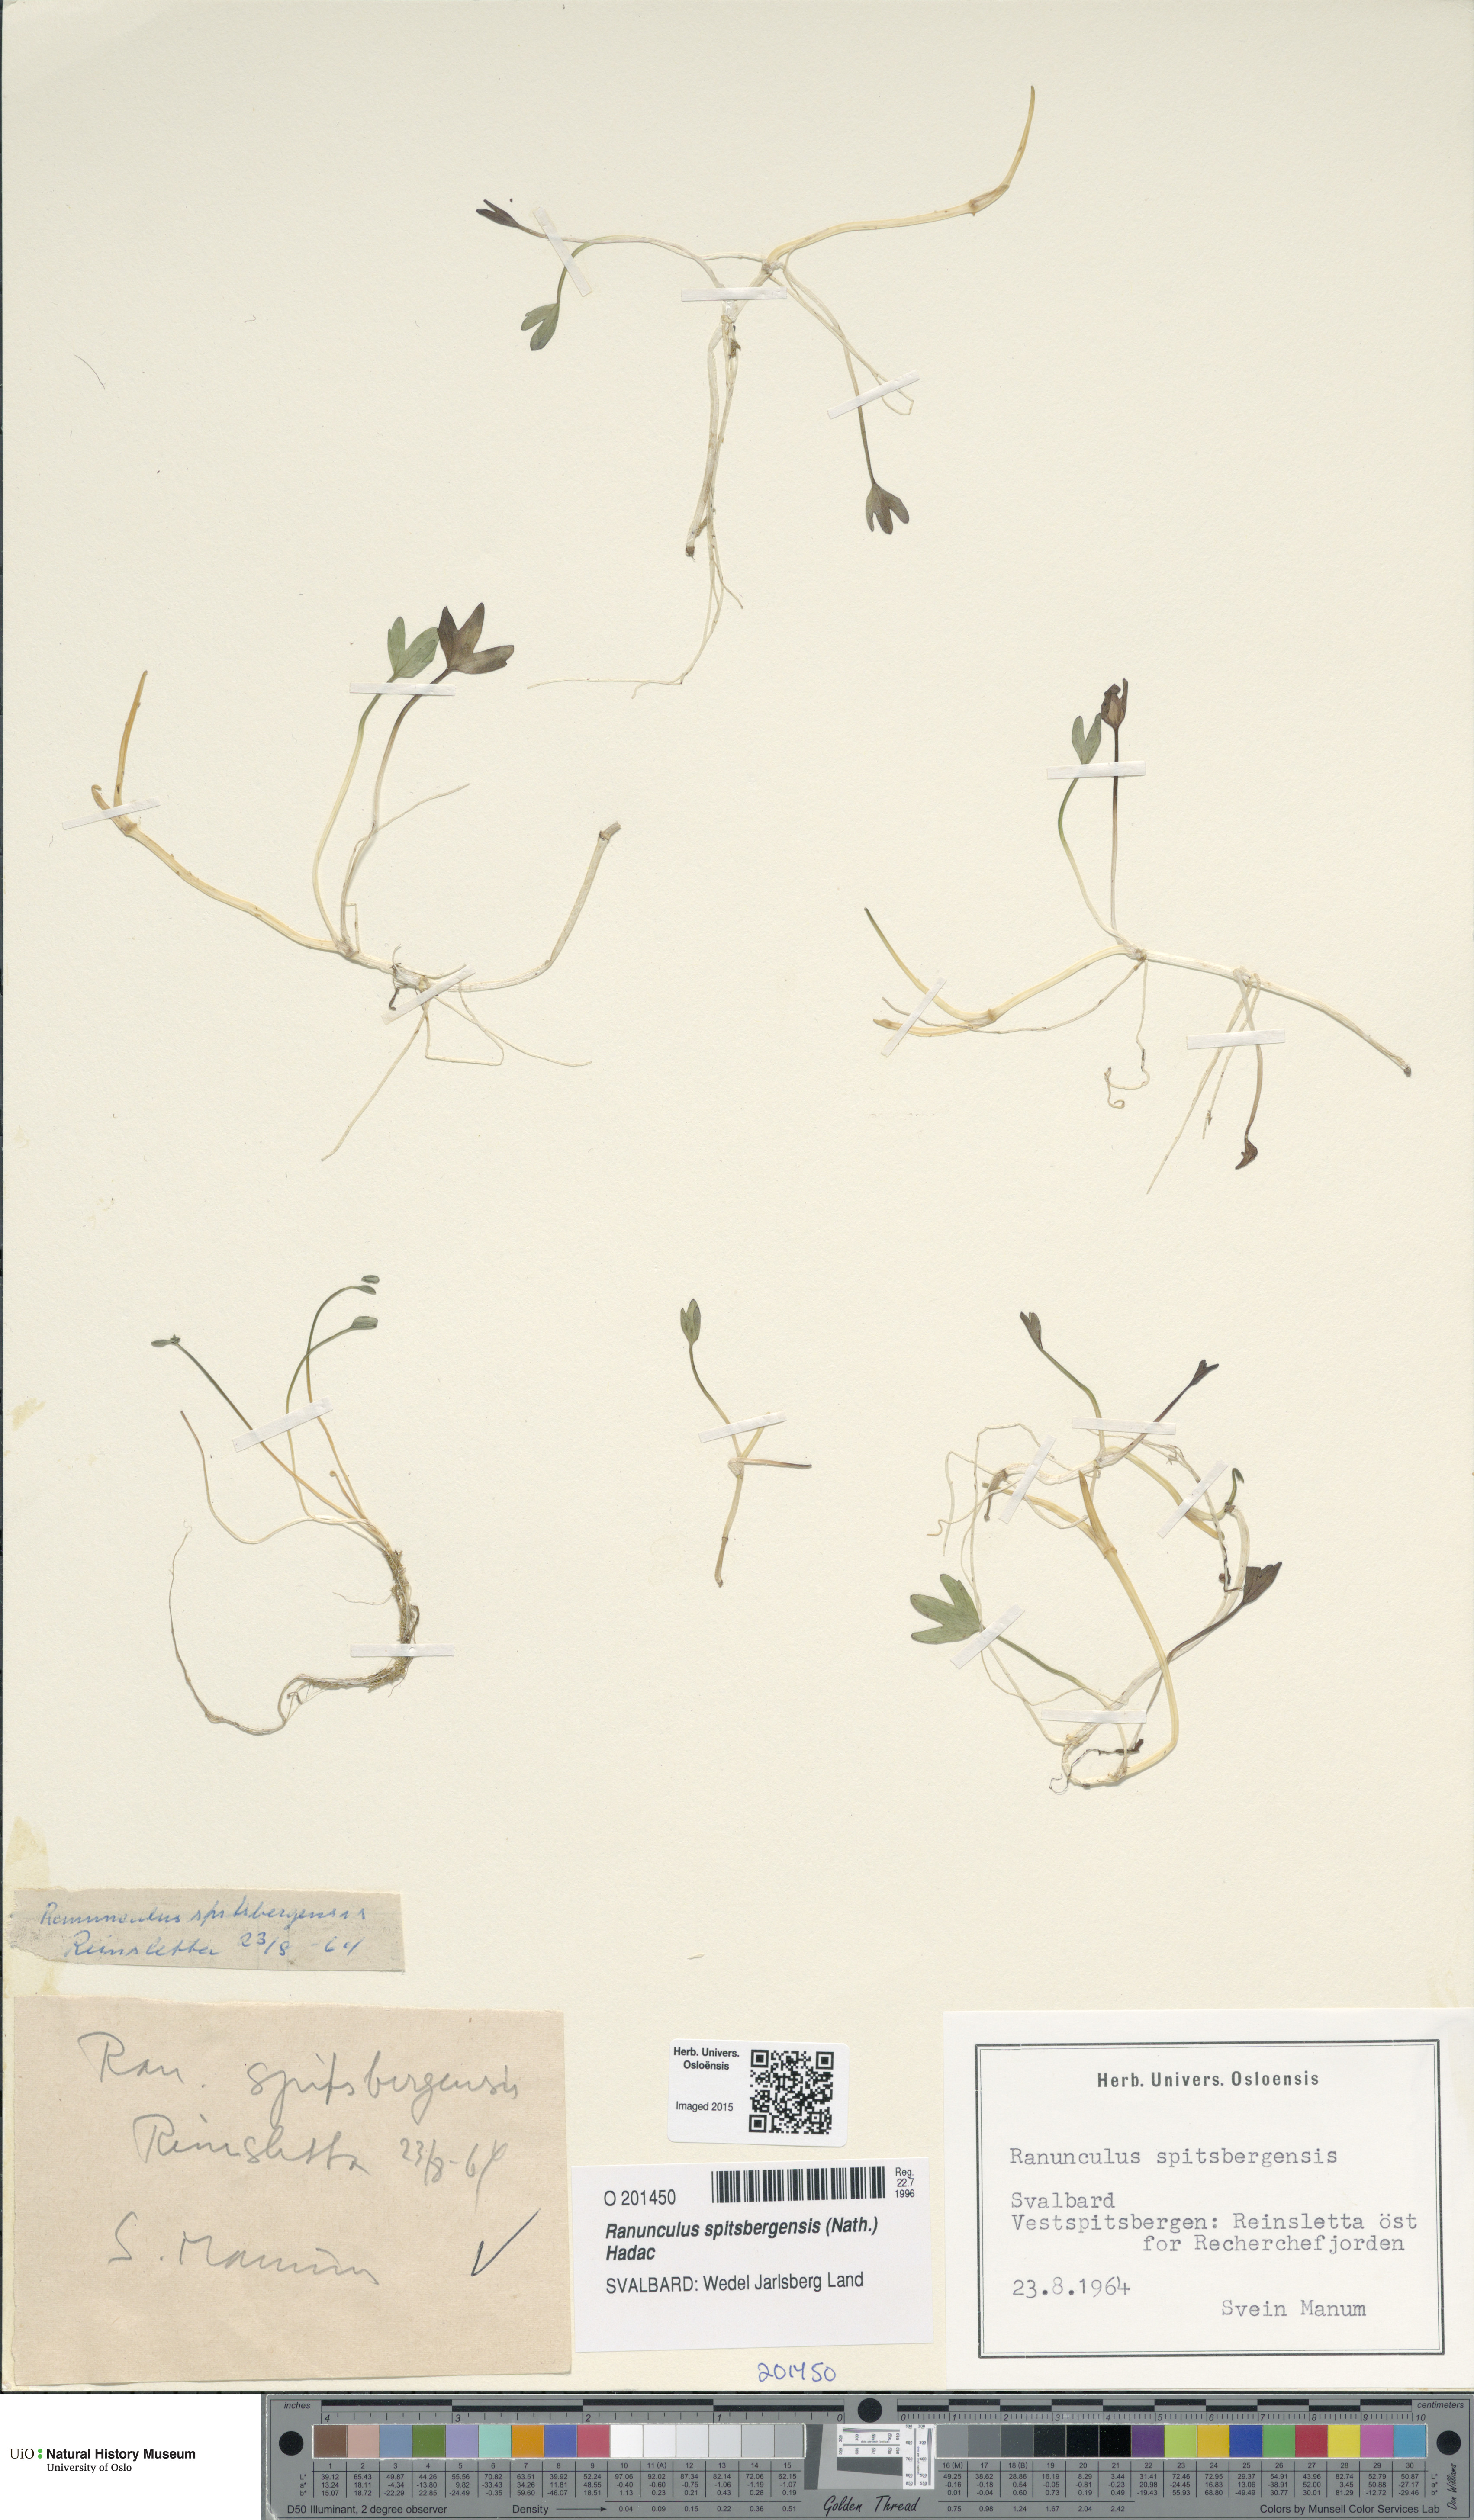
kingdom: Plantae
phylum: Tracheophyta
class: Magnoliopsida
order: Ranunculales
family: Ranunculaceae
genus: Coptidium
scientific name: Coptidium spitsbergense
